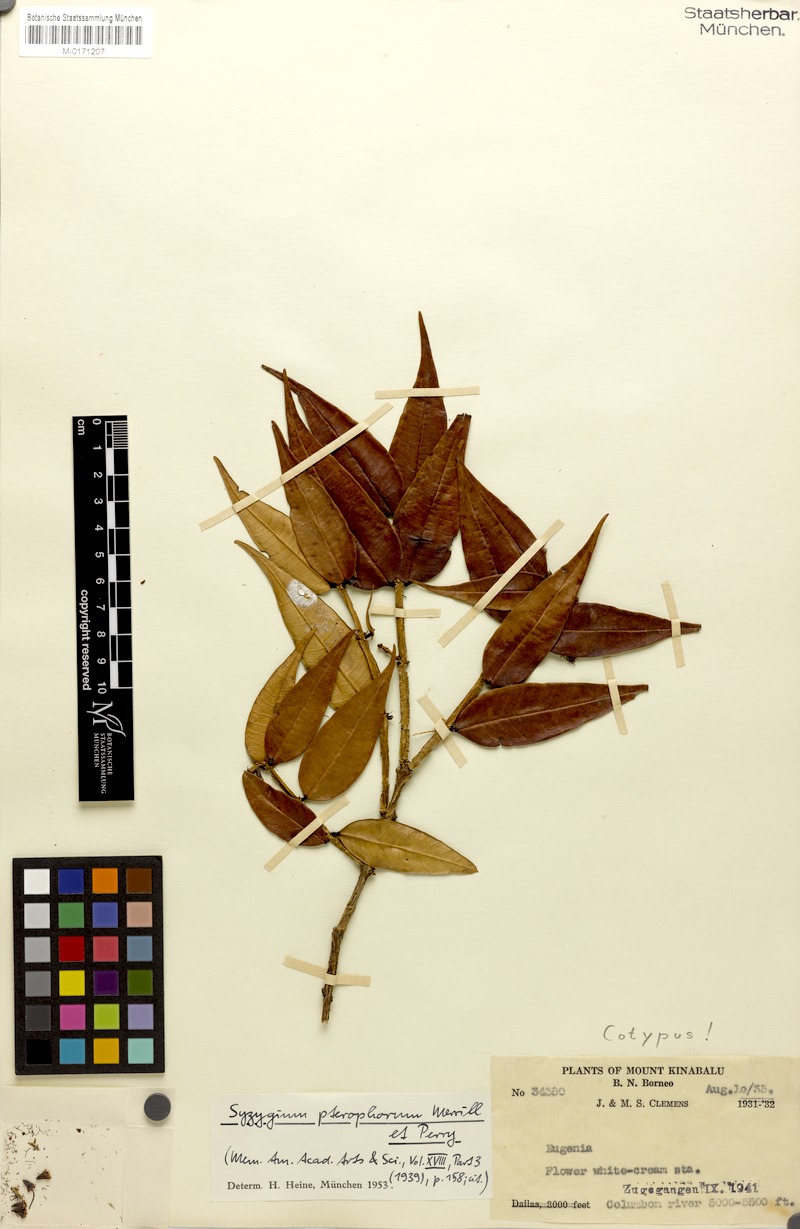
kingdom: Plantae
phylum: Tracheophyta
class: Magnoliopsida
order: Myrtales
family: Myrtaceae
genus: Syzygium
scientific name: Syzygium pterophorum
